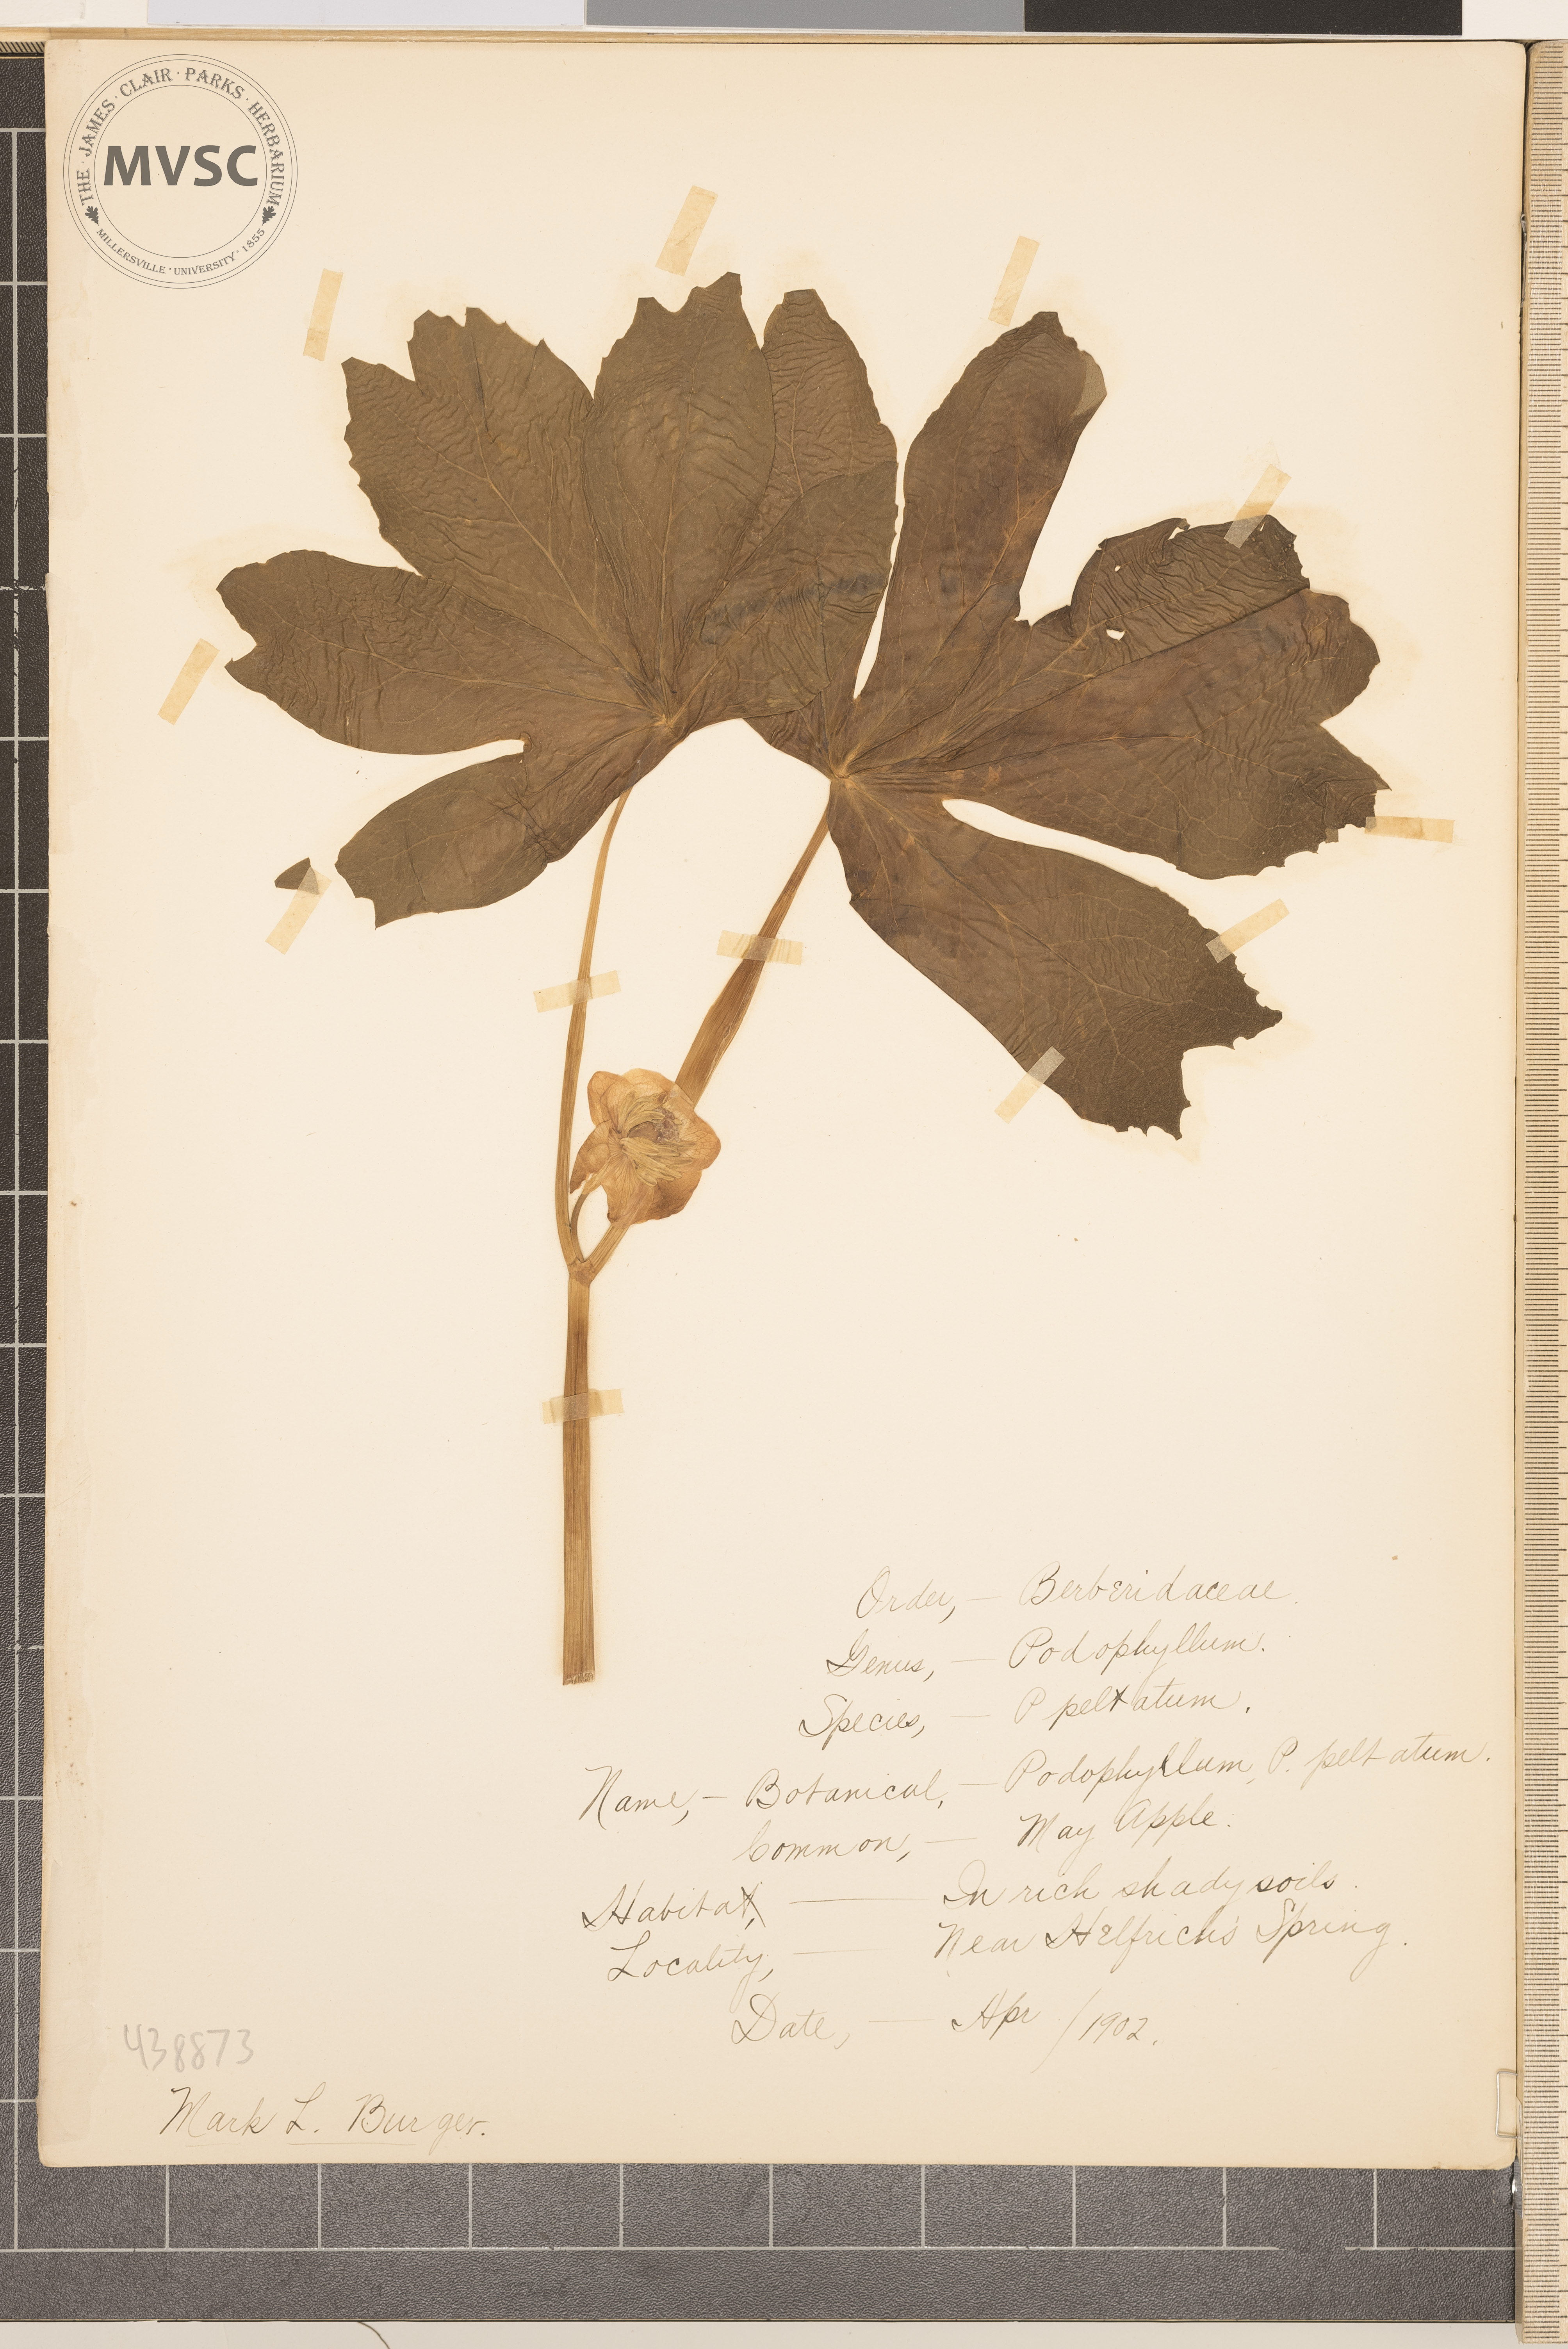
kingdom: Plantae
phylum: Tracheophyta
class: Magnoliopsida
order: Ranunculales
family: Berberidaceae
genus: Podophyllum
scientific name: Podophyllum peltatum
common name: May apple
